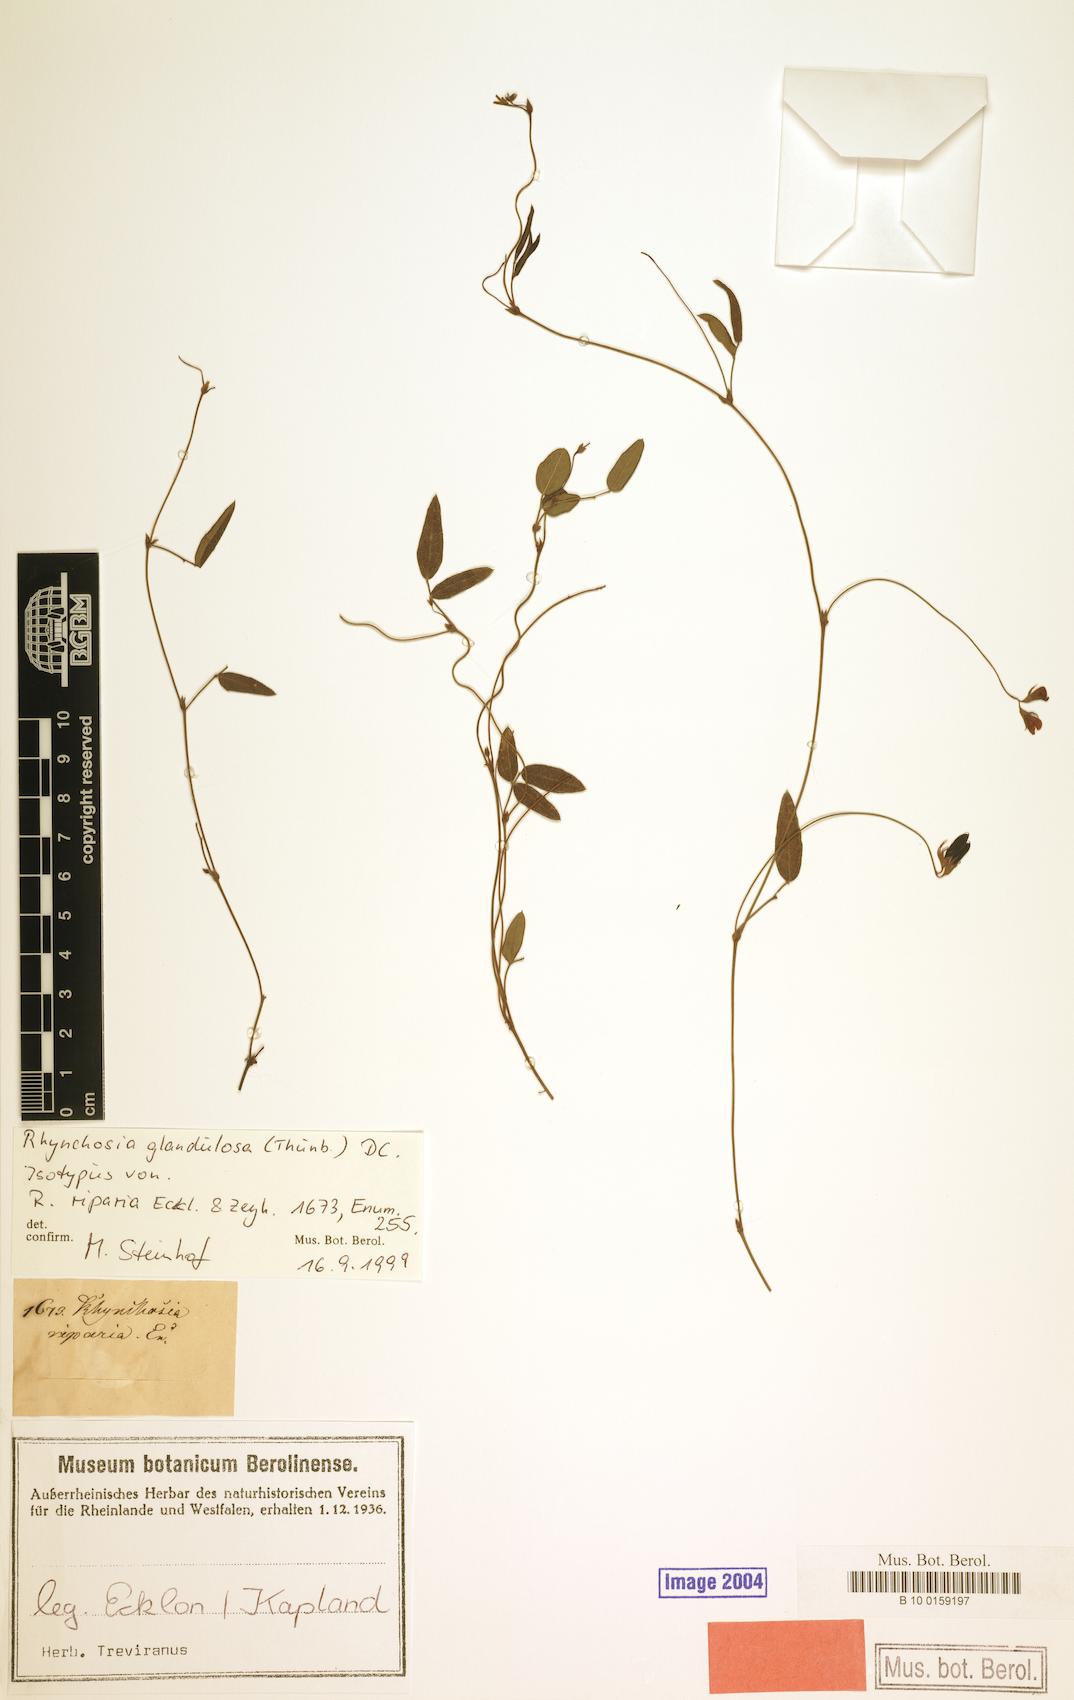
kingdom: Plantae
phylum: Tracheophyta
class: Magnoliopsida
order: Fabales
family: Fabaceae
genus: Rhynchosia
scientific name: Rhynchosia capensis
